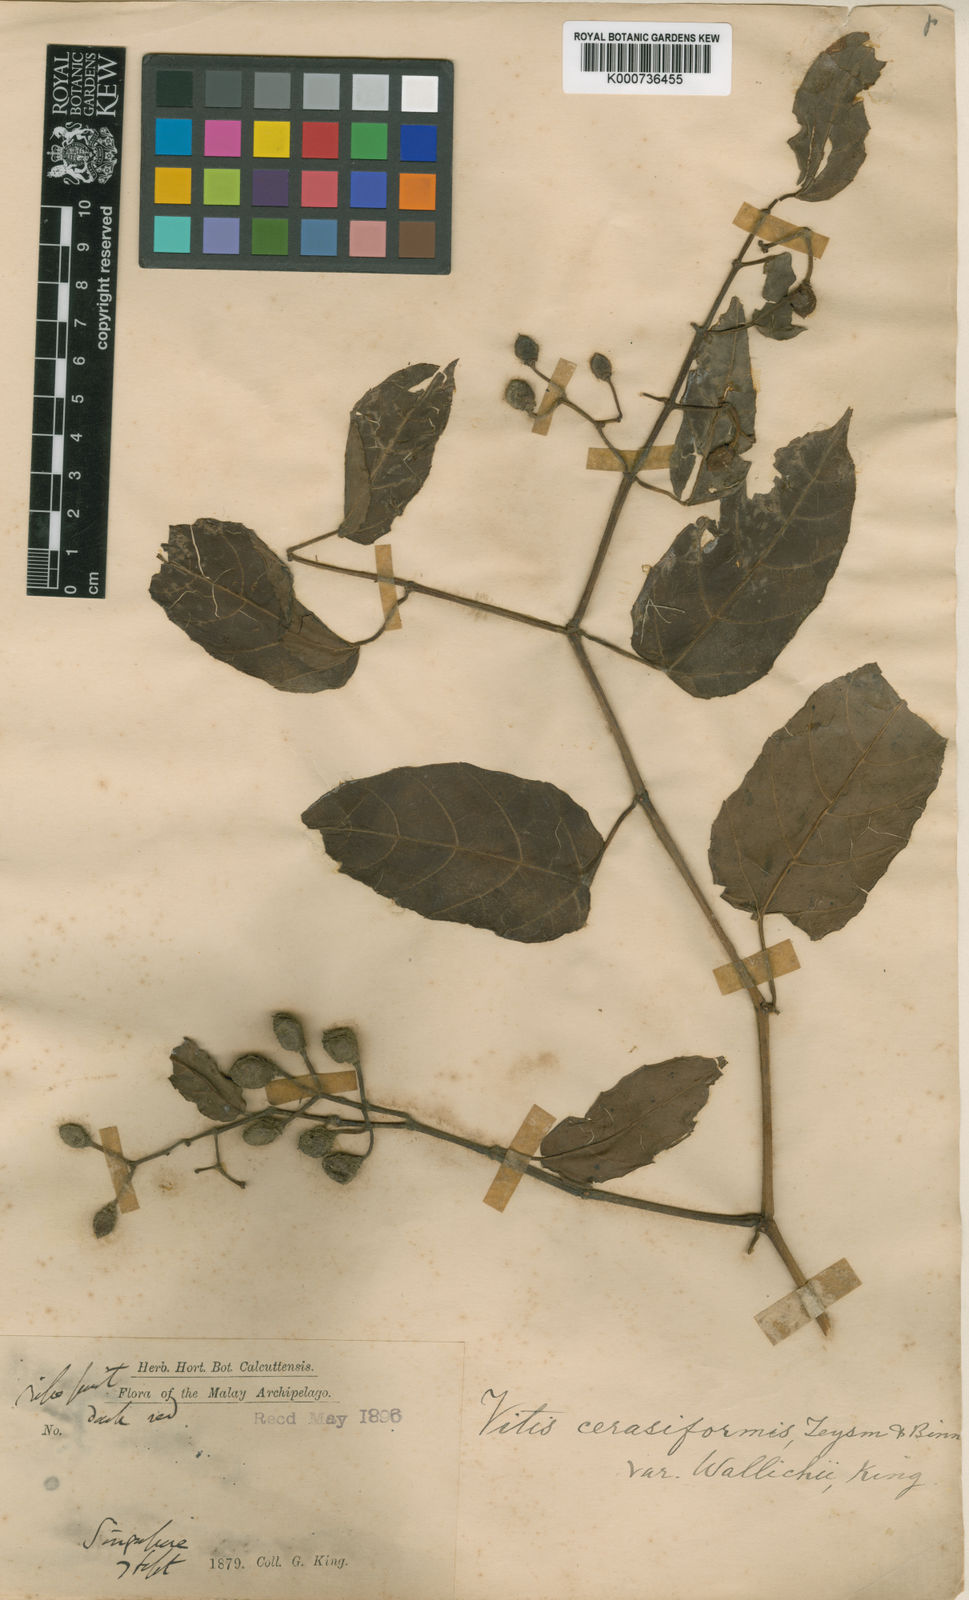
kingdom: Plantae
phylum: Tracheophyta
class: Magnoliopsida
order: Vitales
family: Vitaceae
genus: Cissus
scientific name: Cissus nodosa
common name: Grape ivy
